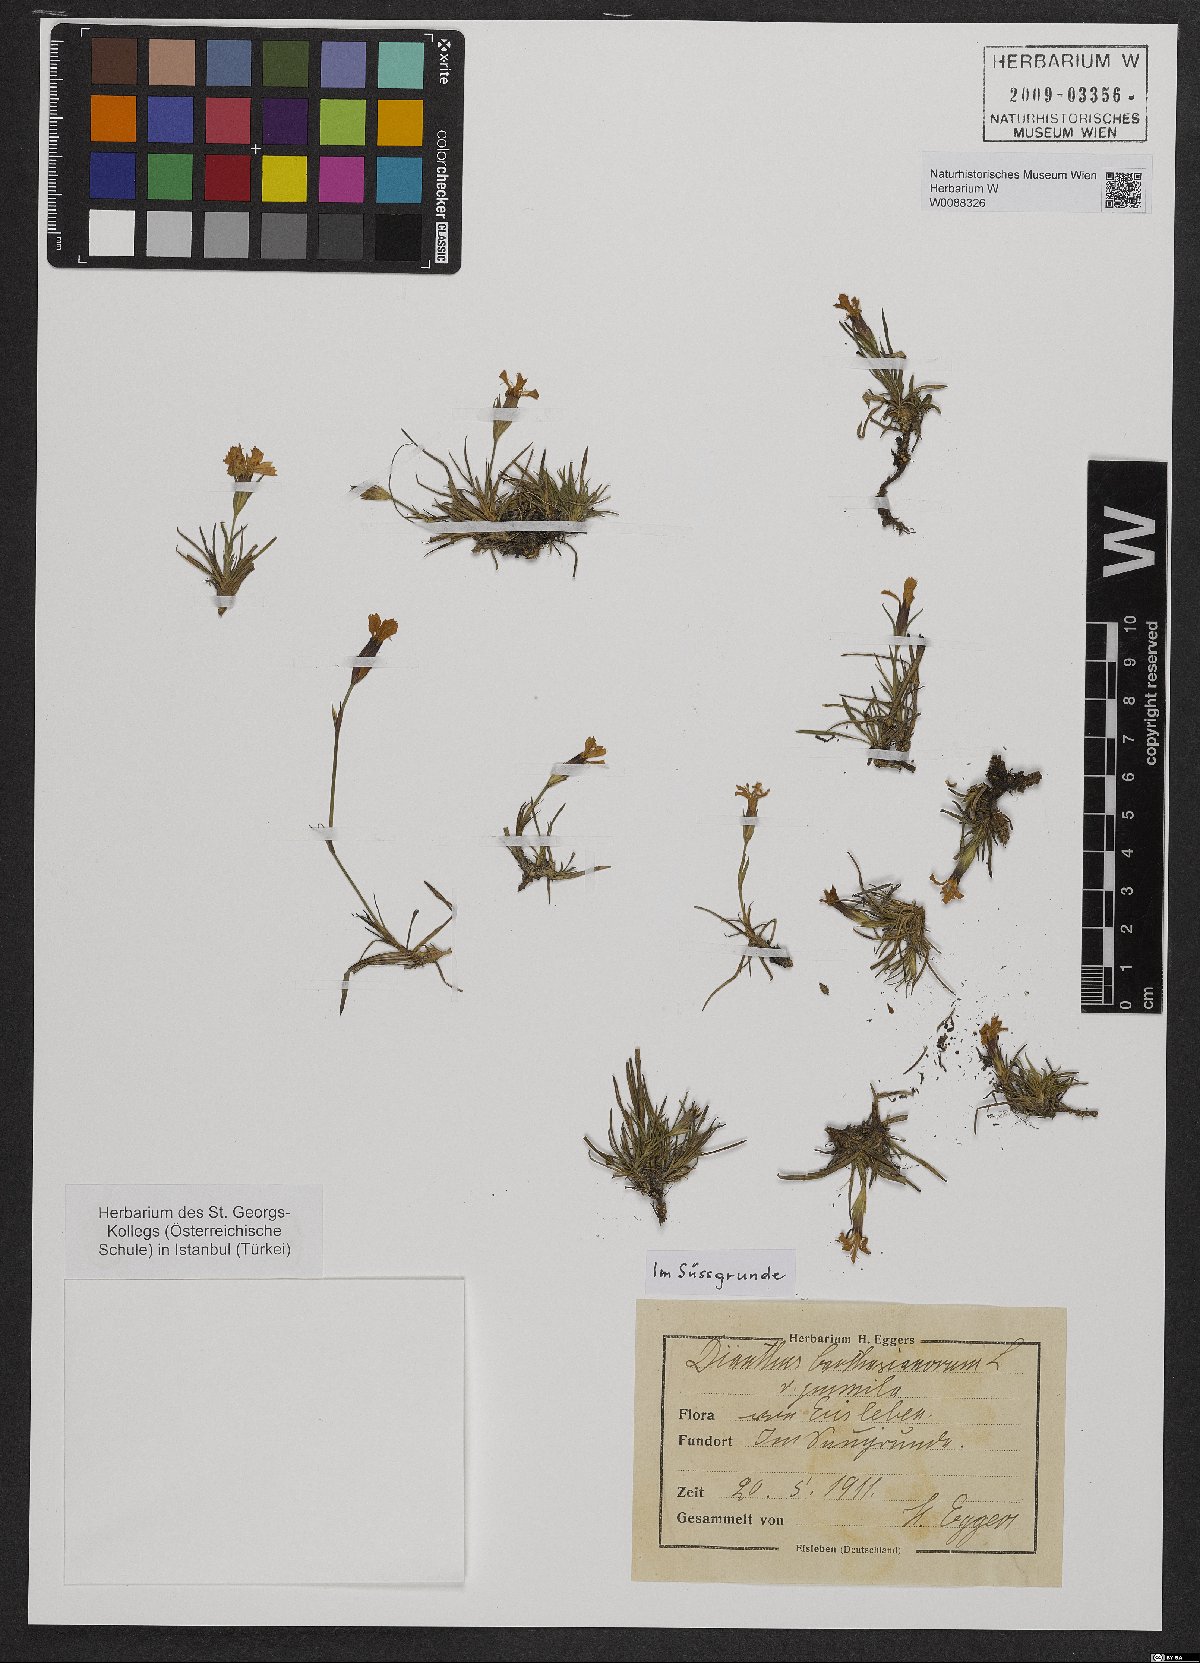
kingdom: Plantae
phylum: Tracheophyta
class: Magnoliopsida
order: Caryophyllales
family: Caryophyllaceae
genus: Dianthus
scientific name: Dianthus carthusianorum
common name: Carthusian pink
